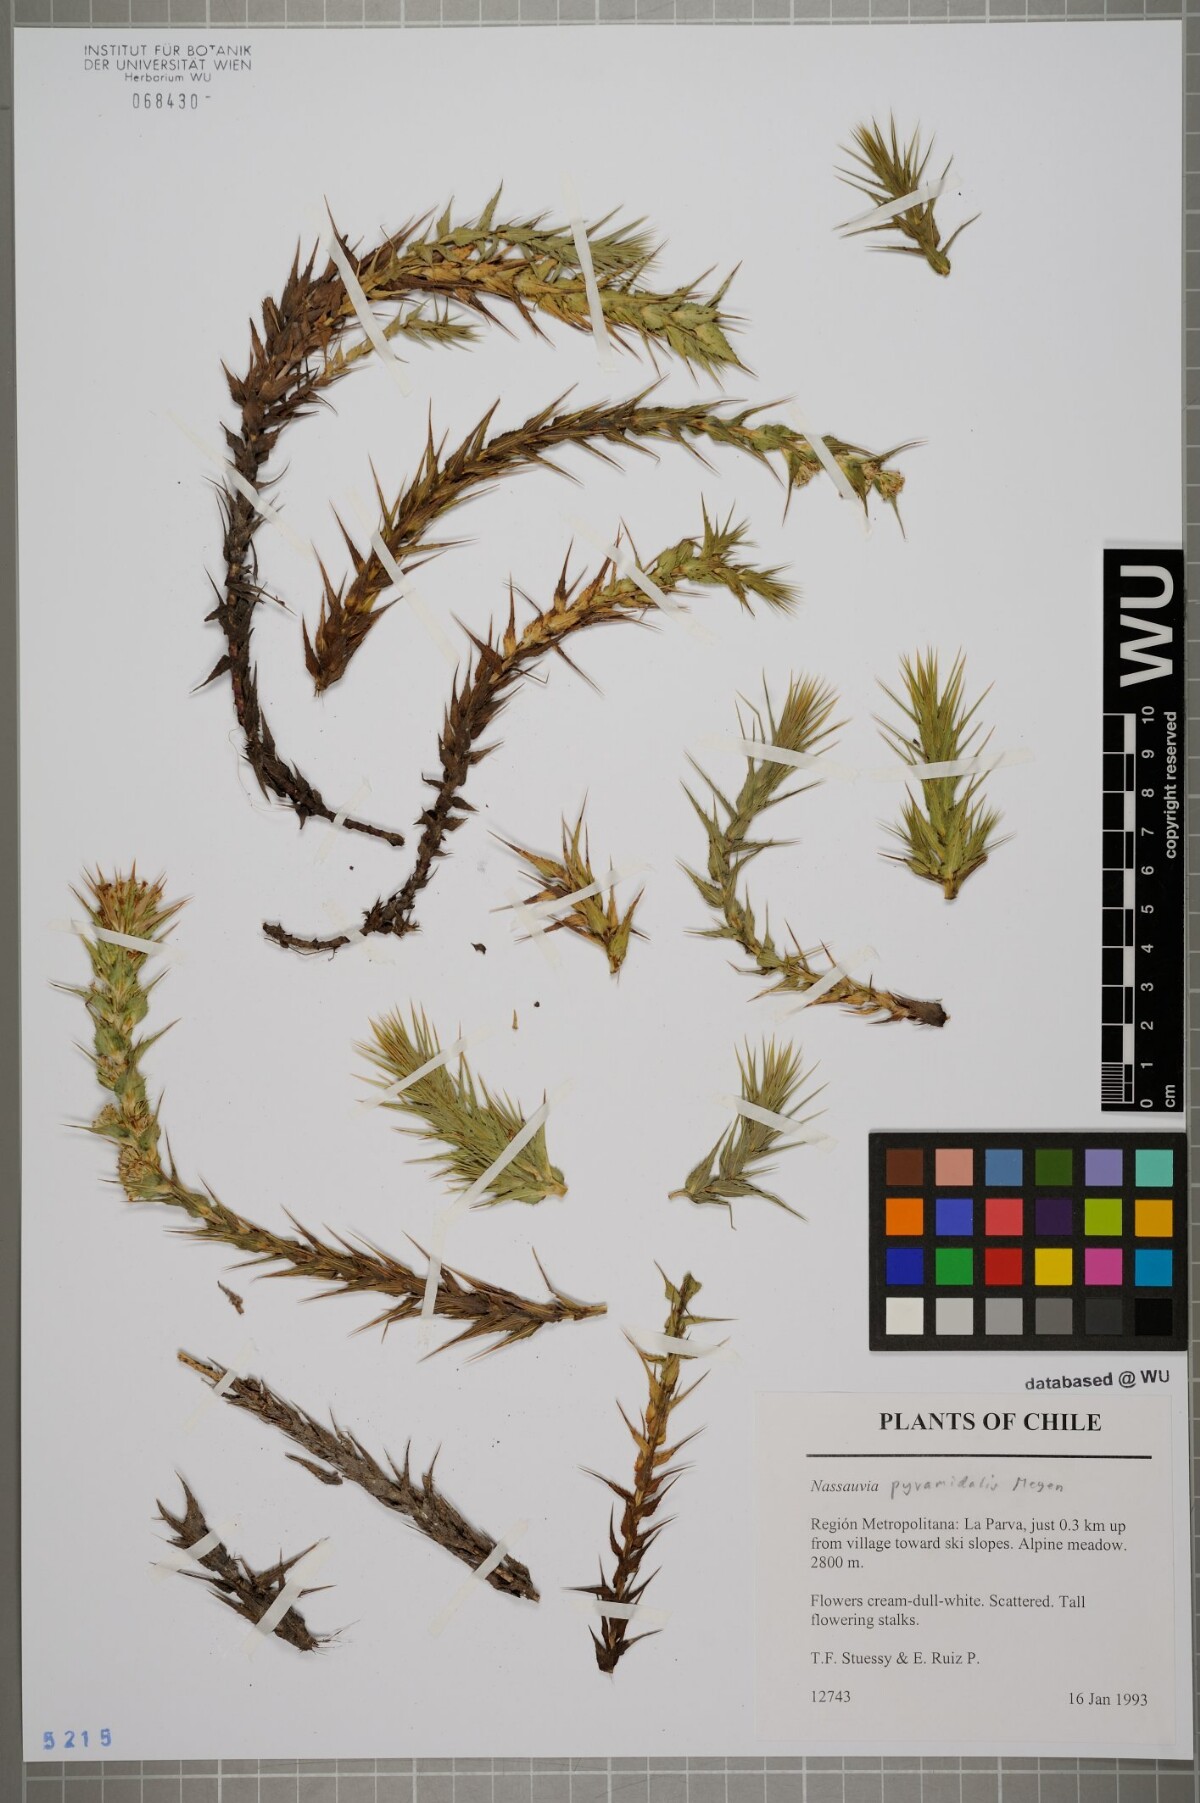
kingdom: Plantae
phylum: Tracheophyta
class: Magnoliopsida
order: Asterales
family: Asteraceae
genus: Nassauvia
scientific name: Nassauvia pyramidalis
